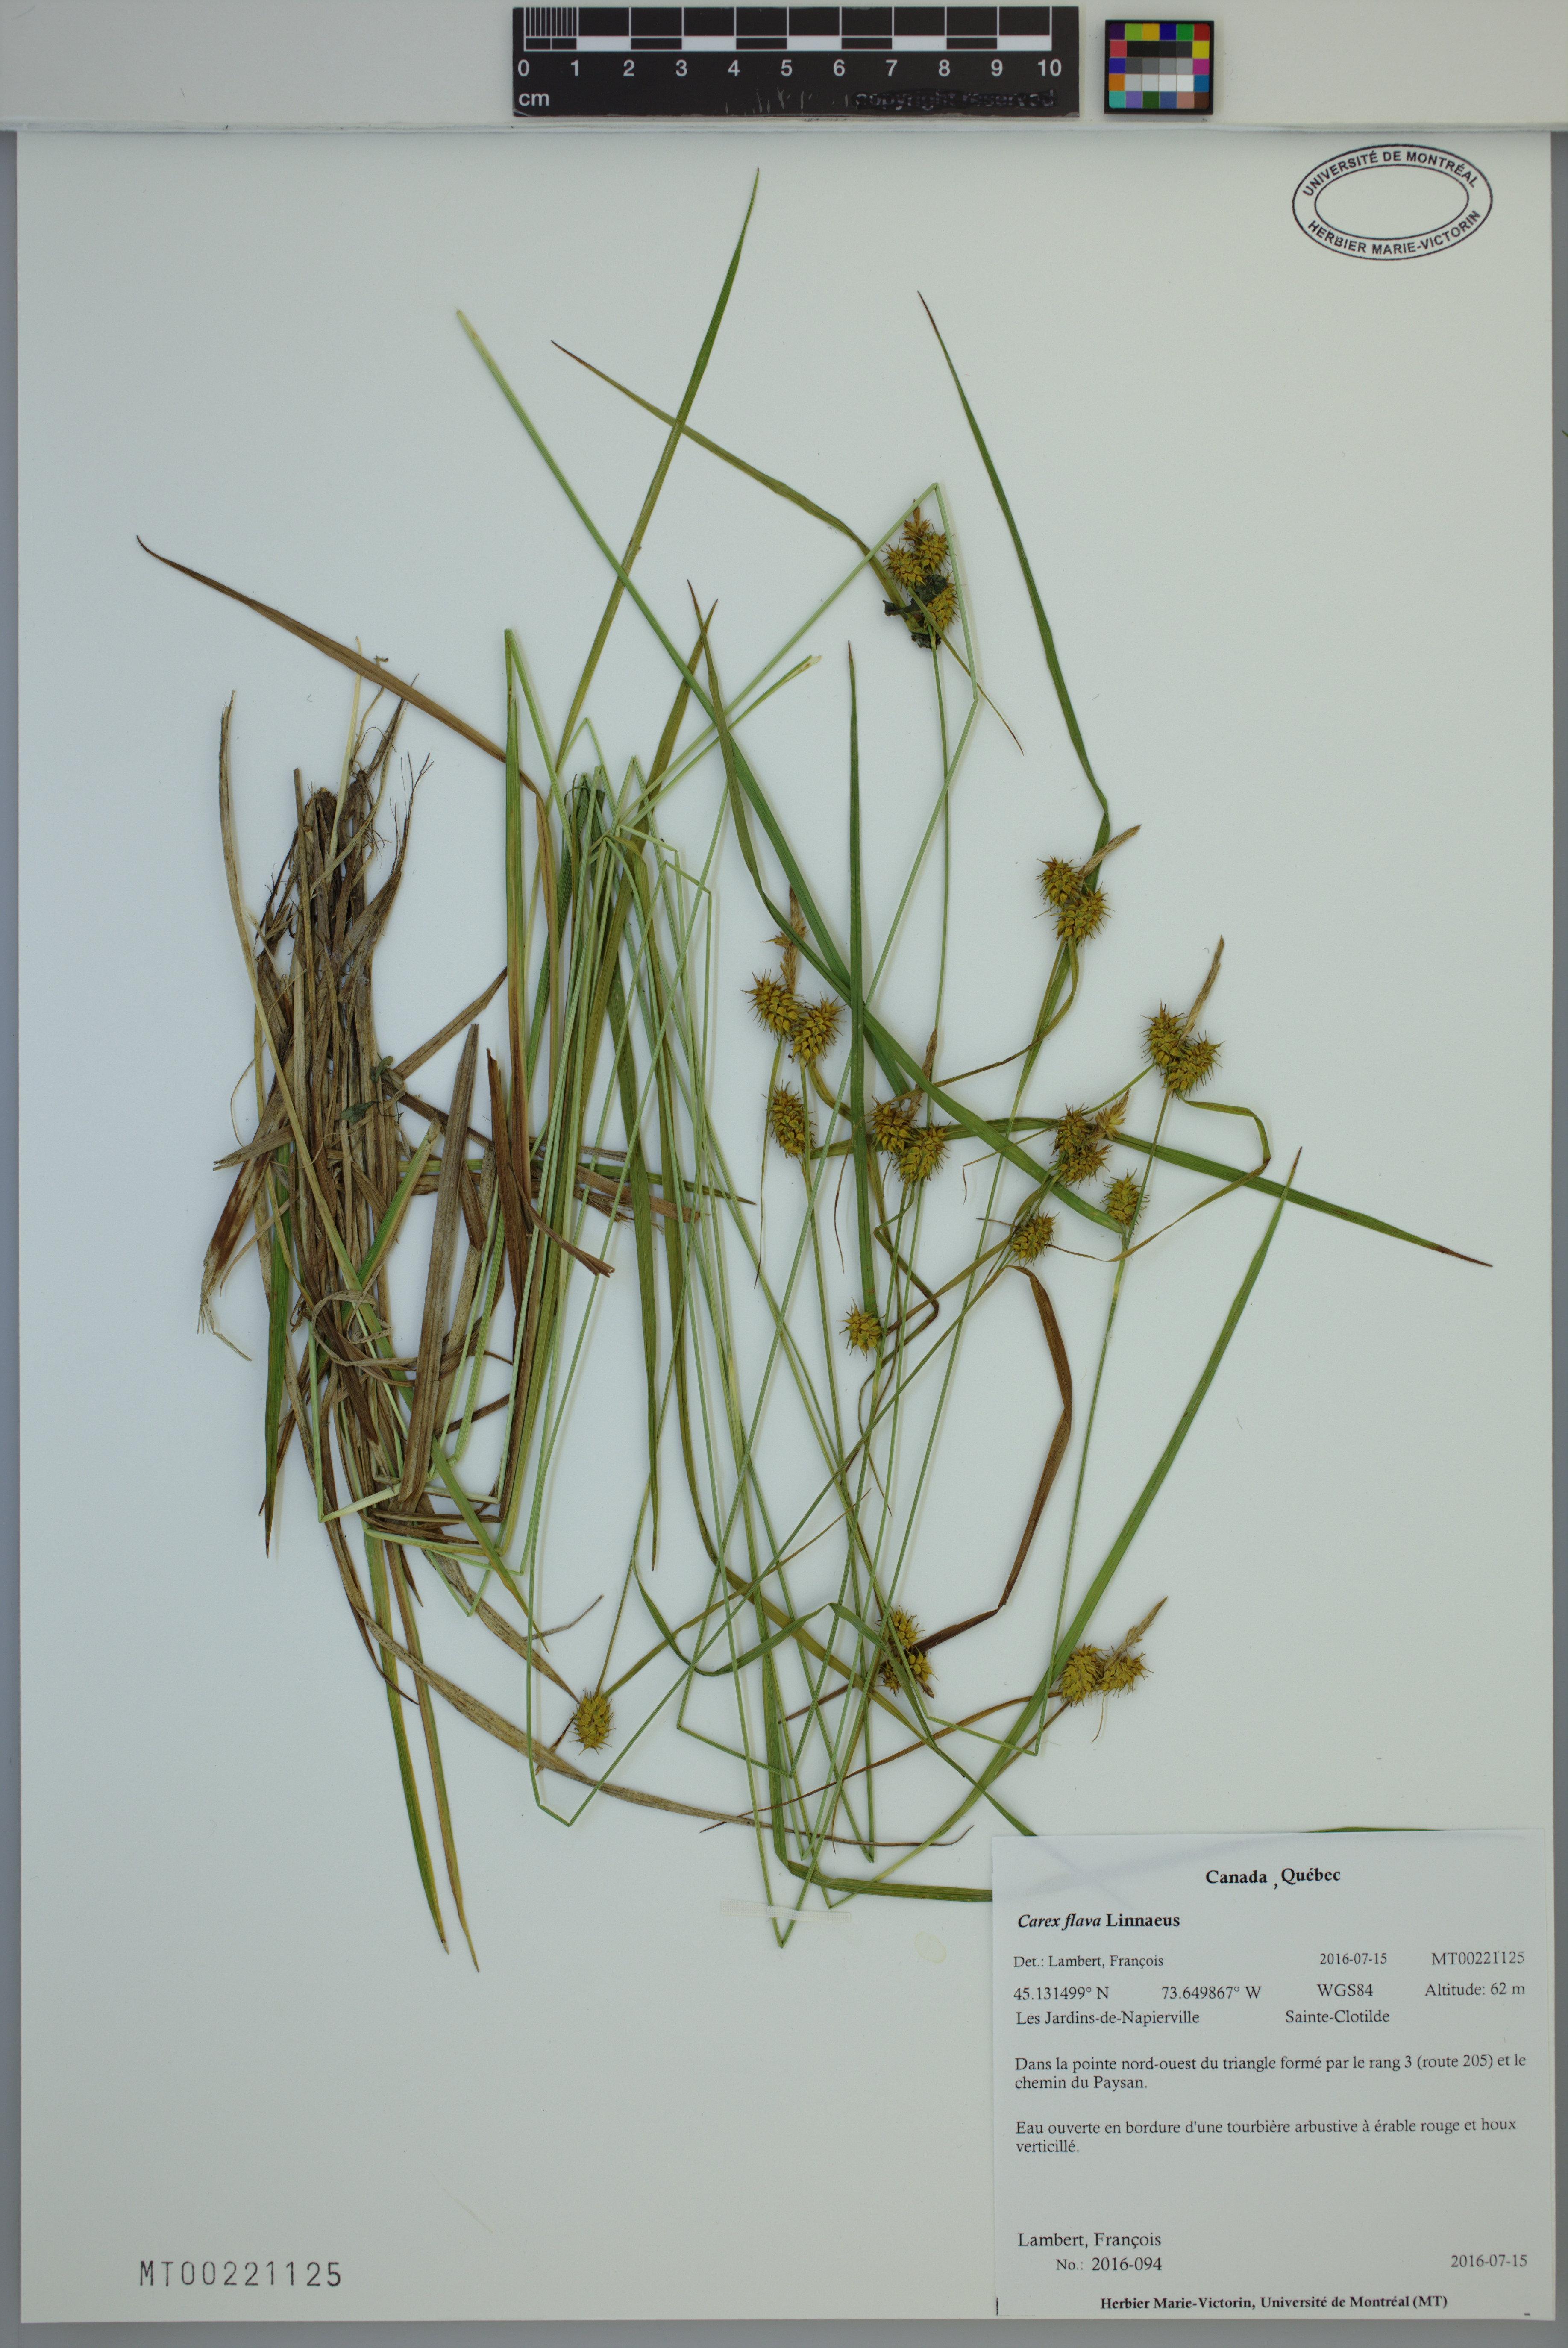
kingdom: Plantae
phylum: Tracheophyta
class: Liliopsida
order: Poales
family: Cyperaceae
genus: Carex
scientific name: Carex flava
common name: Large yellow-sedge
